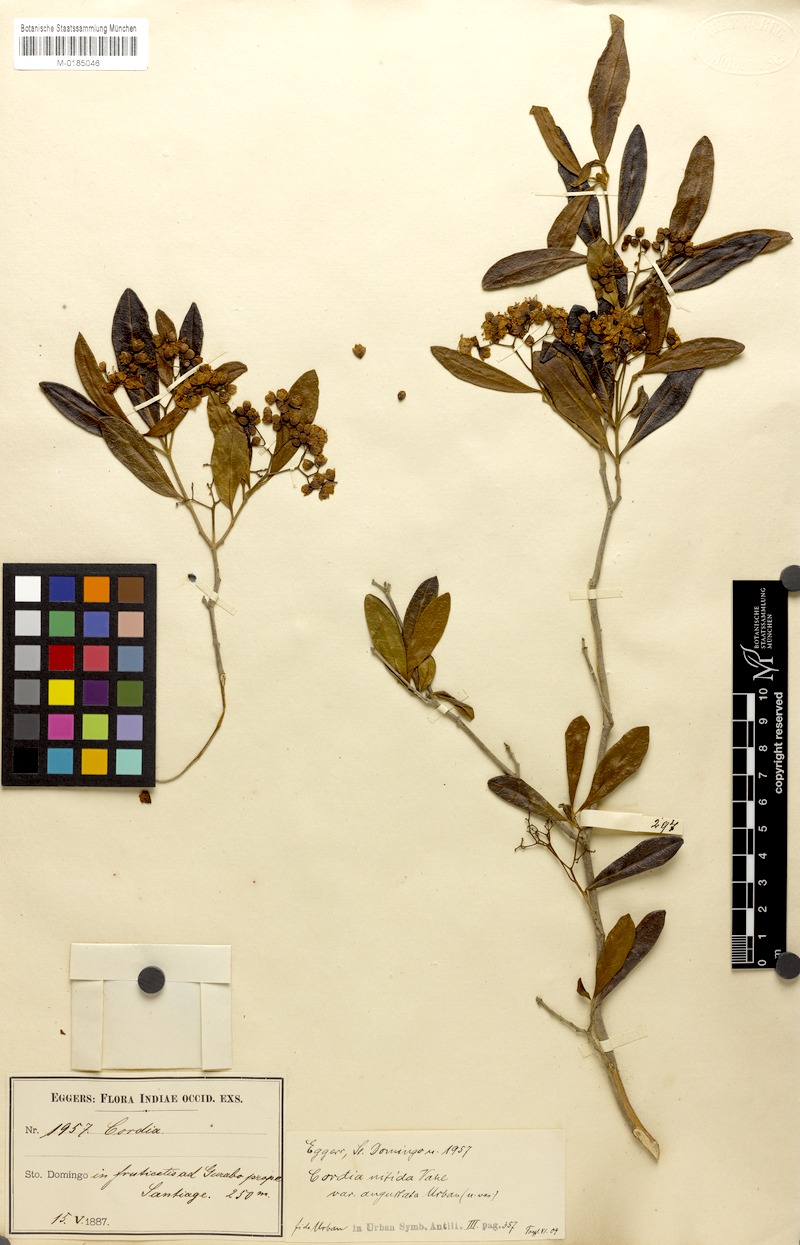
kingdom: Plantae
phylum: Tracheophyta
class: Magnoliopsida
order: Boraginales
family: Cordiaceae
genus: Cordia
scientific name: Cordia laevigata
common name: Clam cherry
